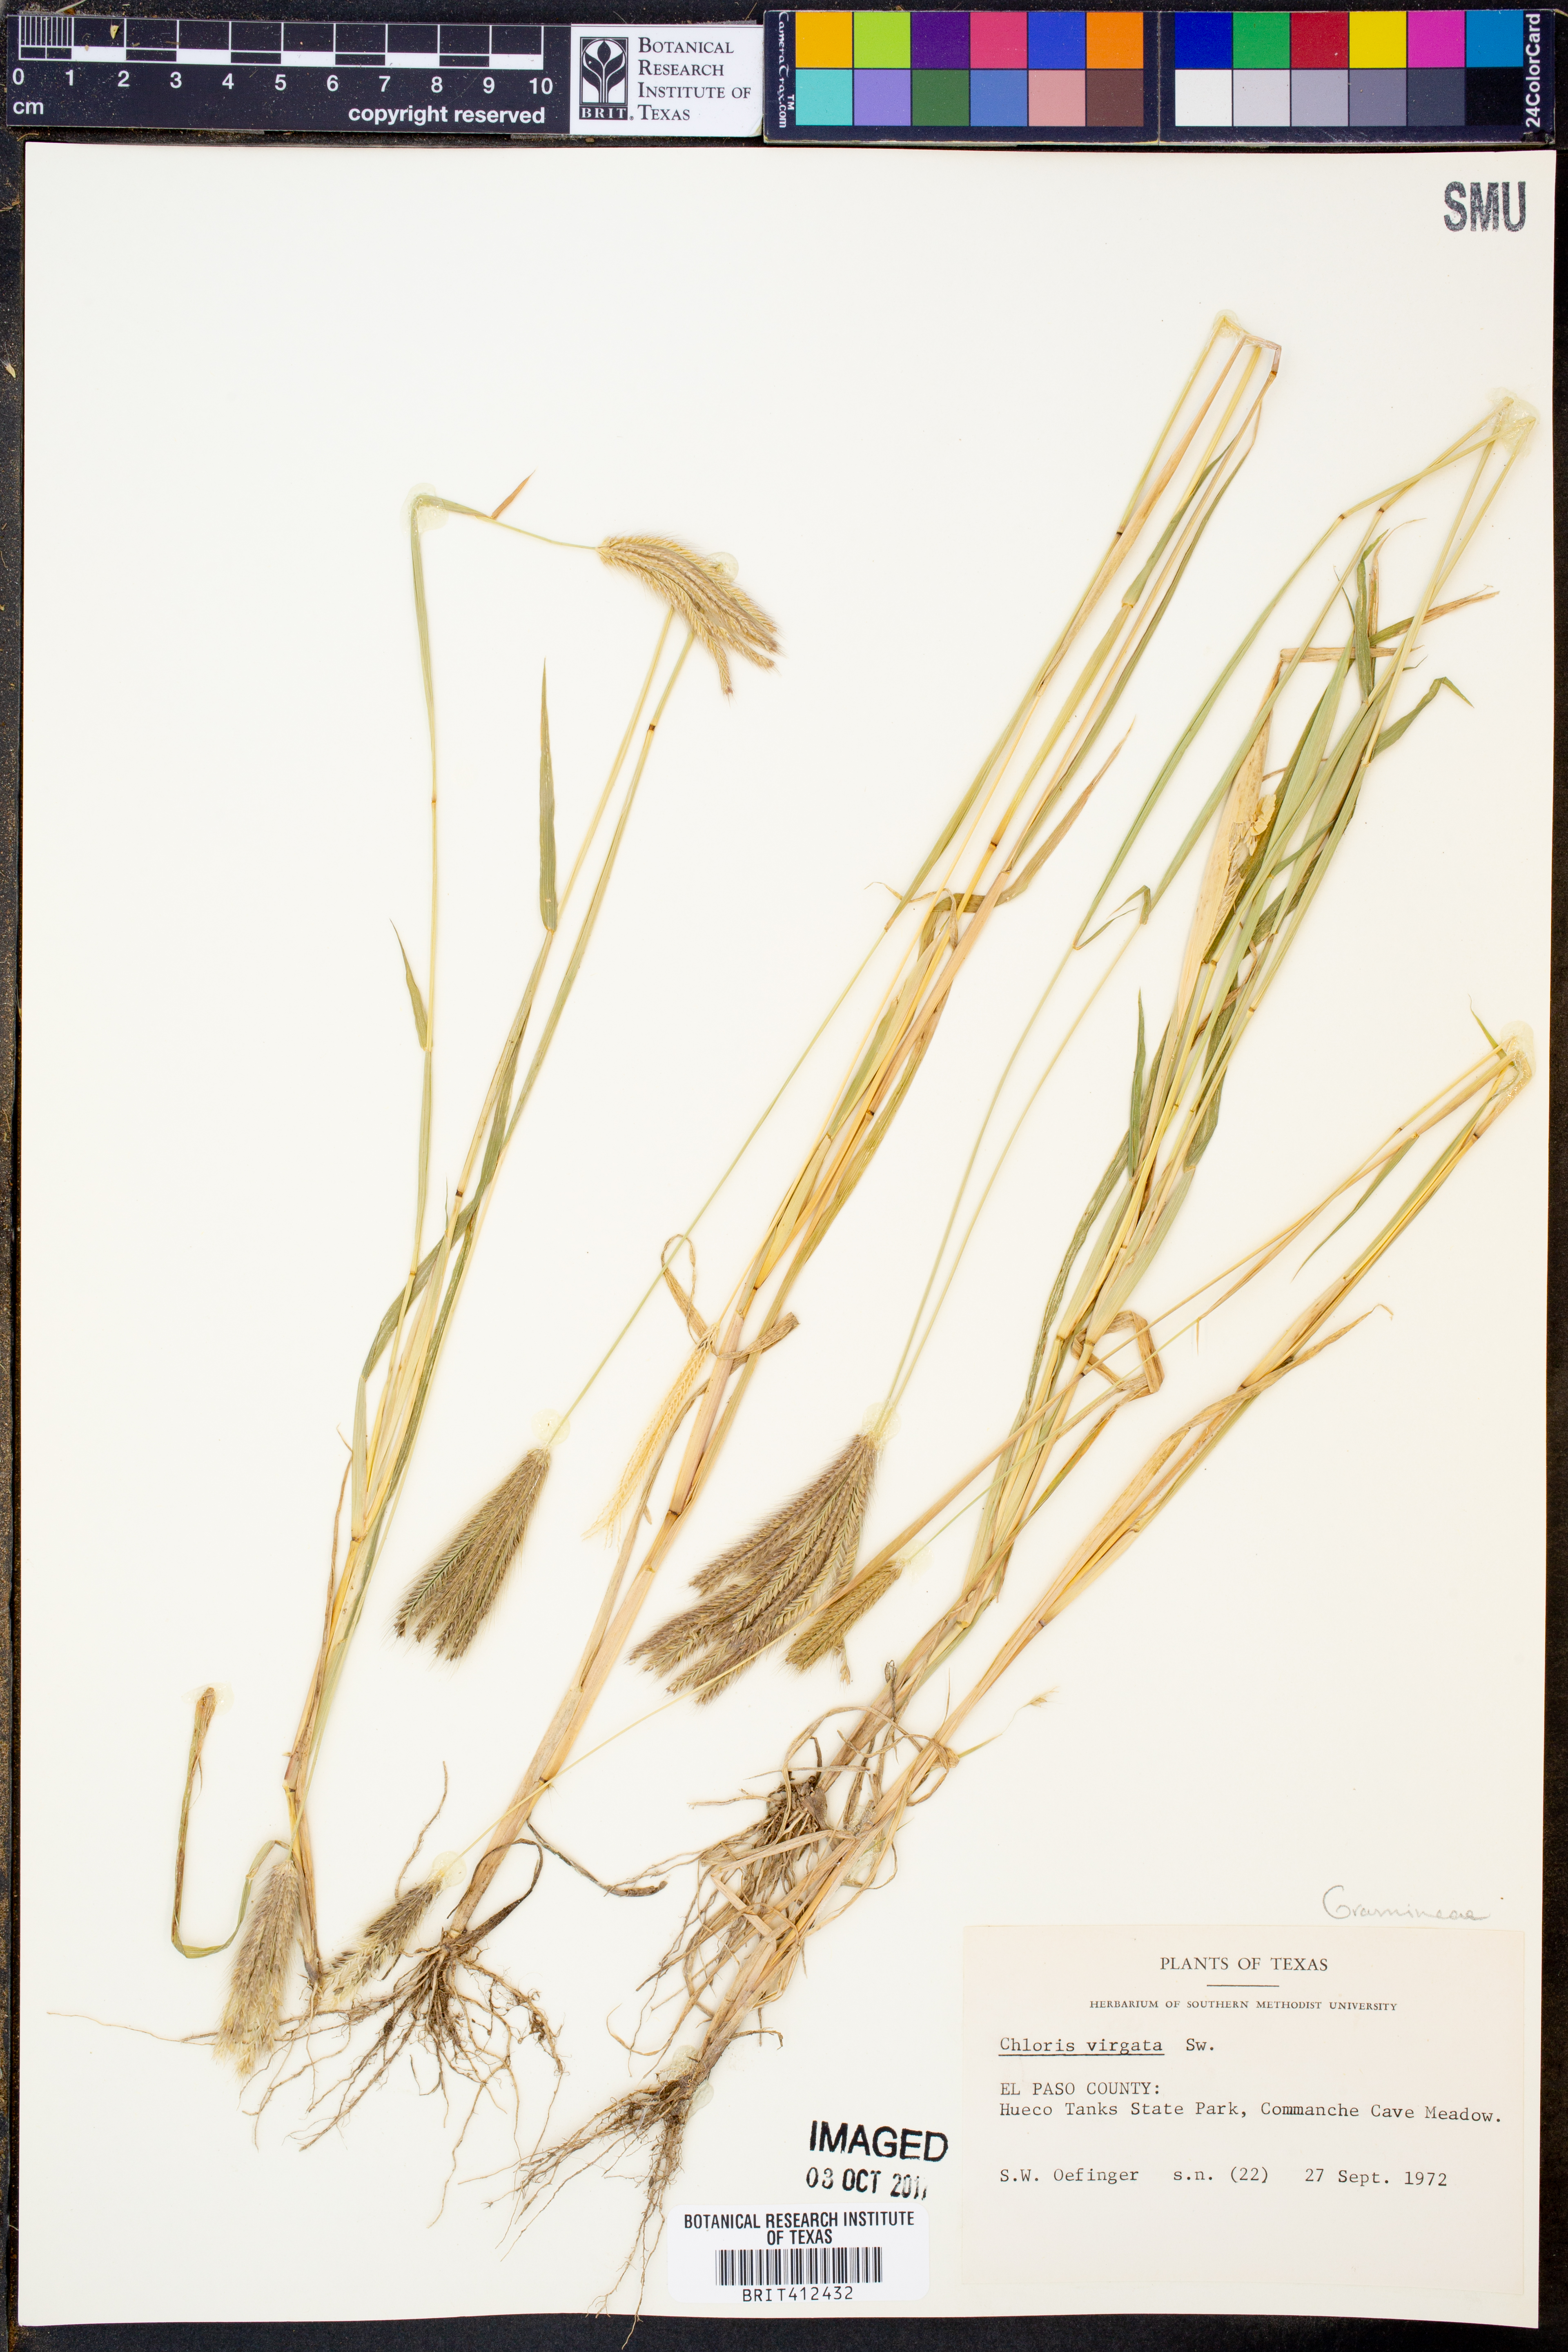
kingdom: Plantae
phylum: Tracheophyta
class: Liliopsida
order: Poales
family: Poaceae
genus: Chloris
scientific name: Chloris virgata
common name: Feathery rhodes-grass
